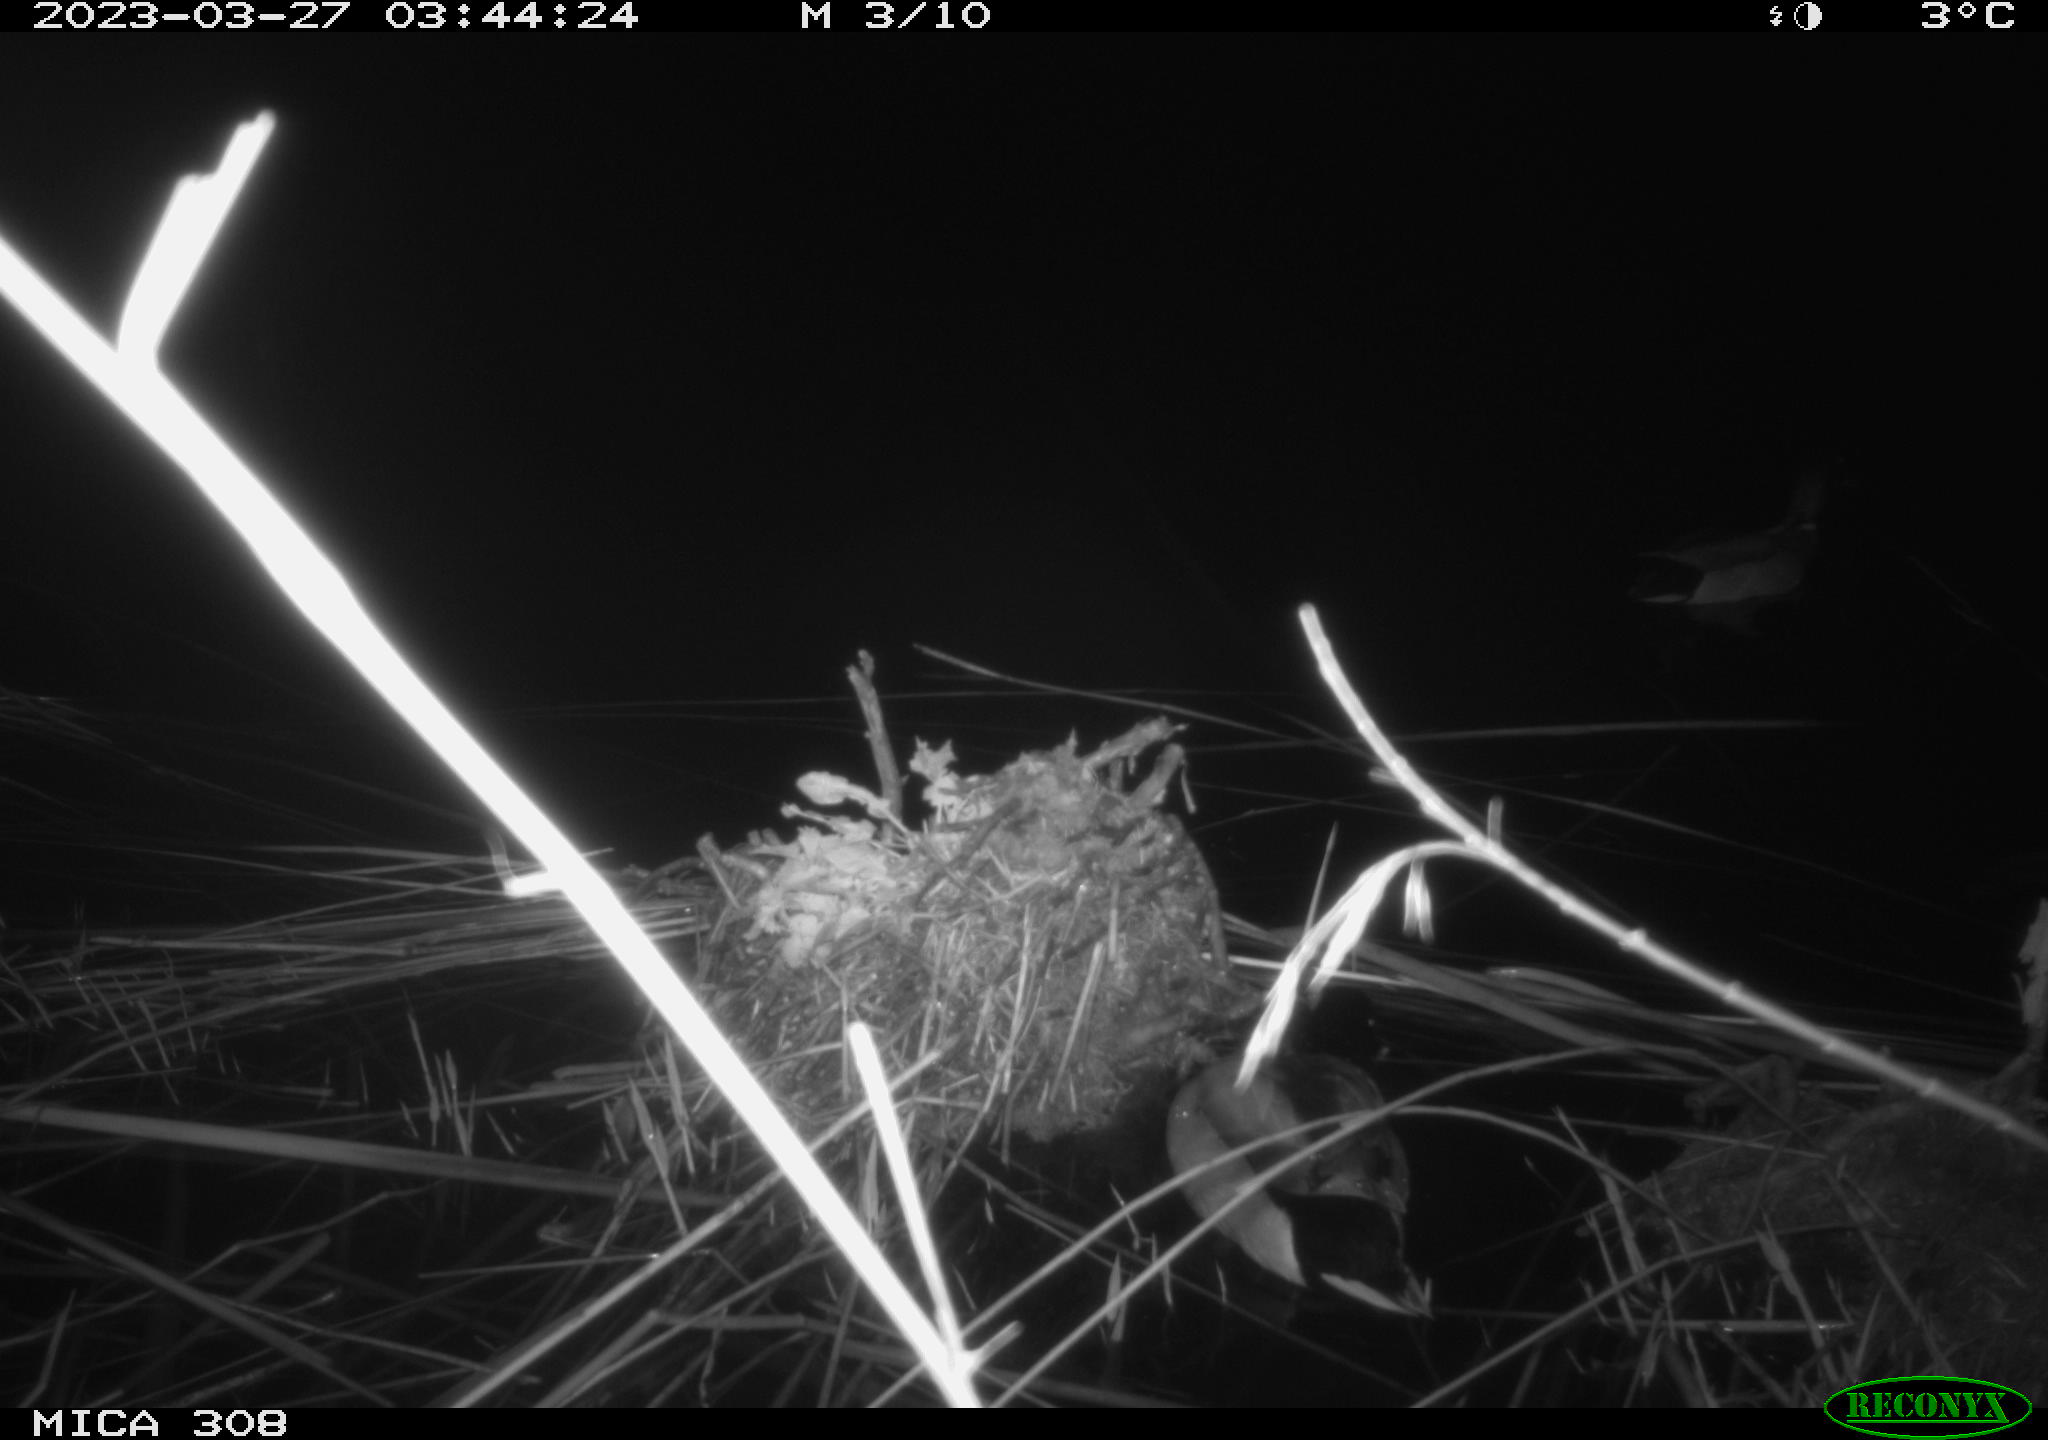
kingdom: Animalia
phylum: Chordata
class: Aves
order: Anseriformes
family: Anatidae
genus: Anas
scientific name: Anas
